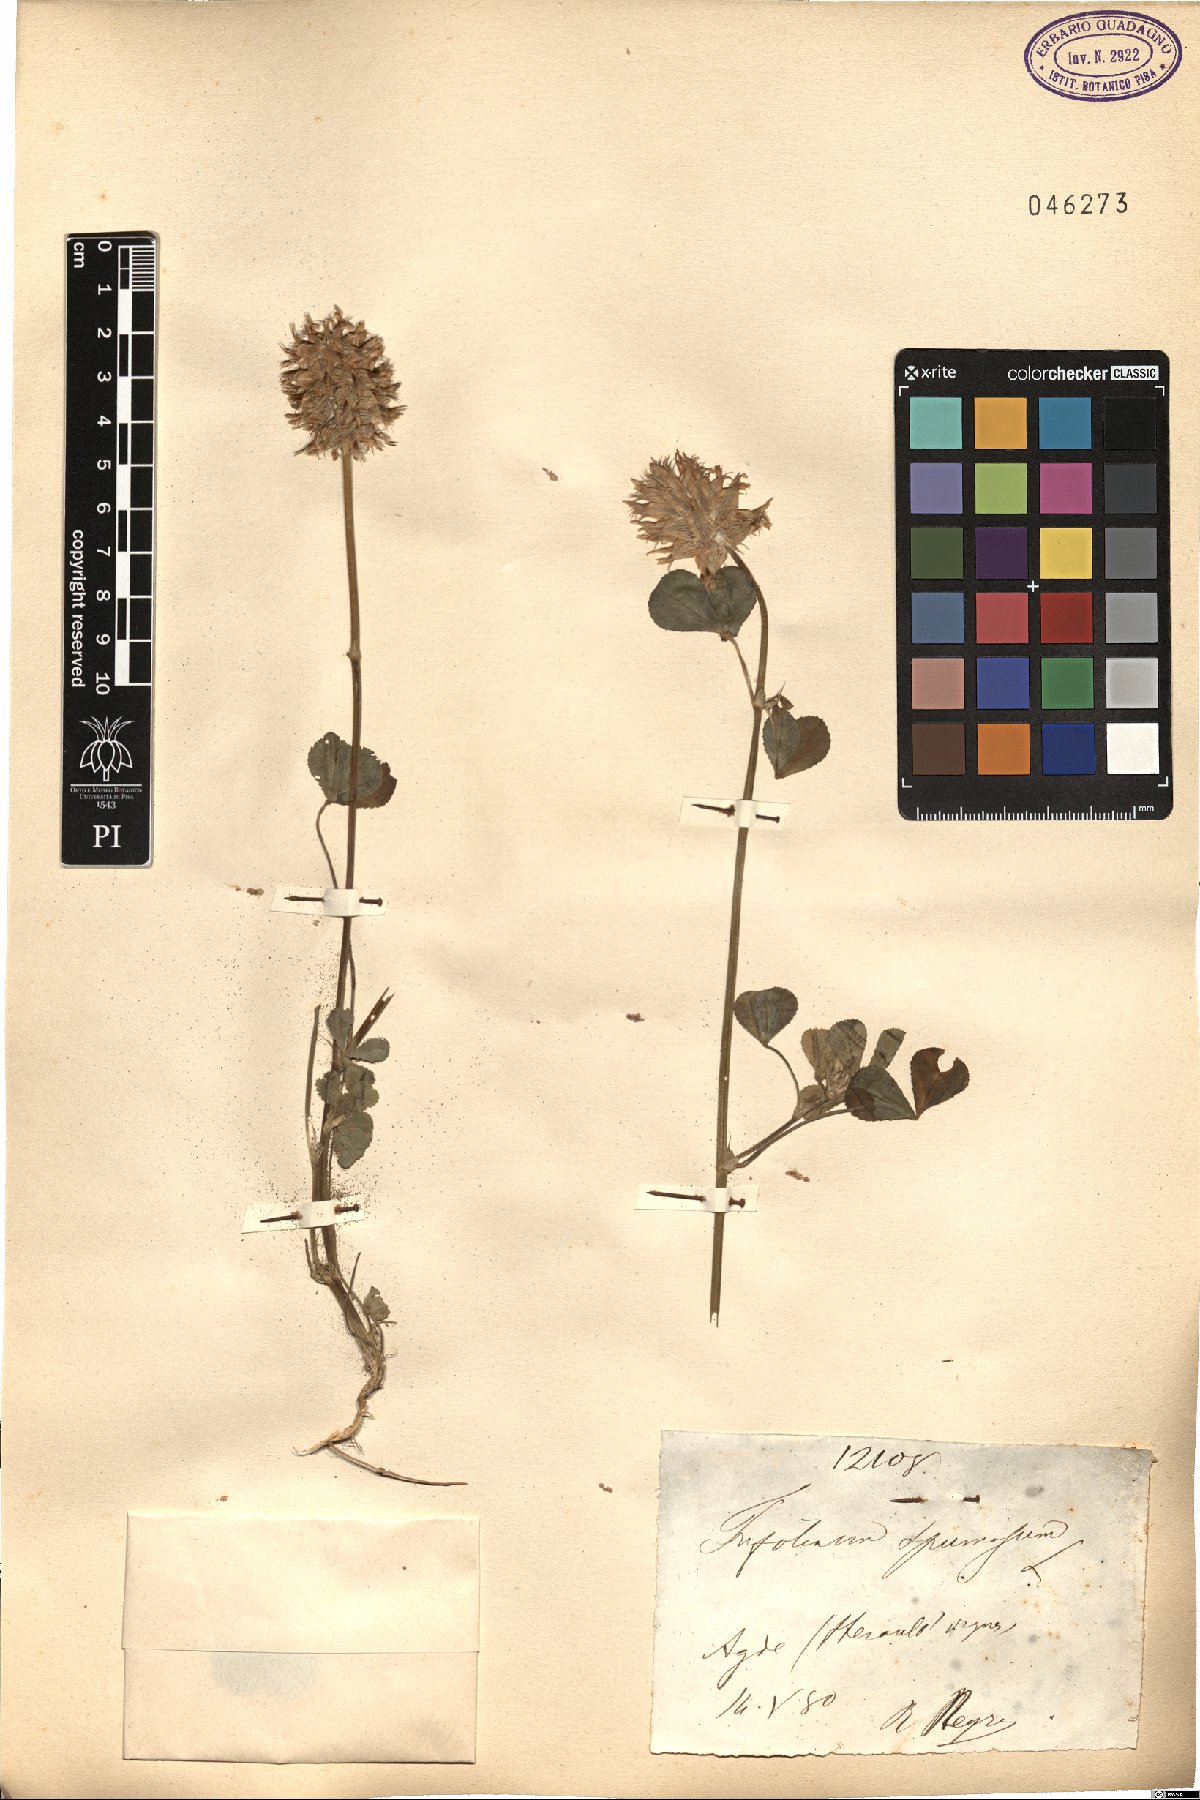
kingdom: Plantae
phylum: Tracheophyta
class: Magnoliopsida
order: Fabales
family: Fabaceae
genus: Trifolium
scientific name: Trifolium spumosum
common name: Mediterranean clover
